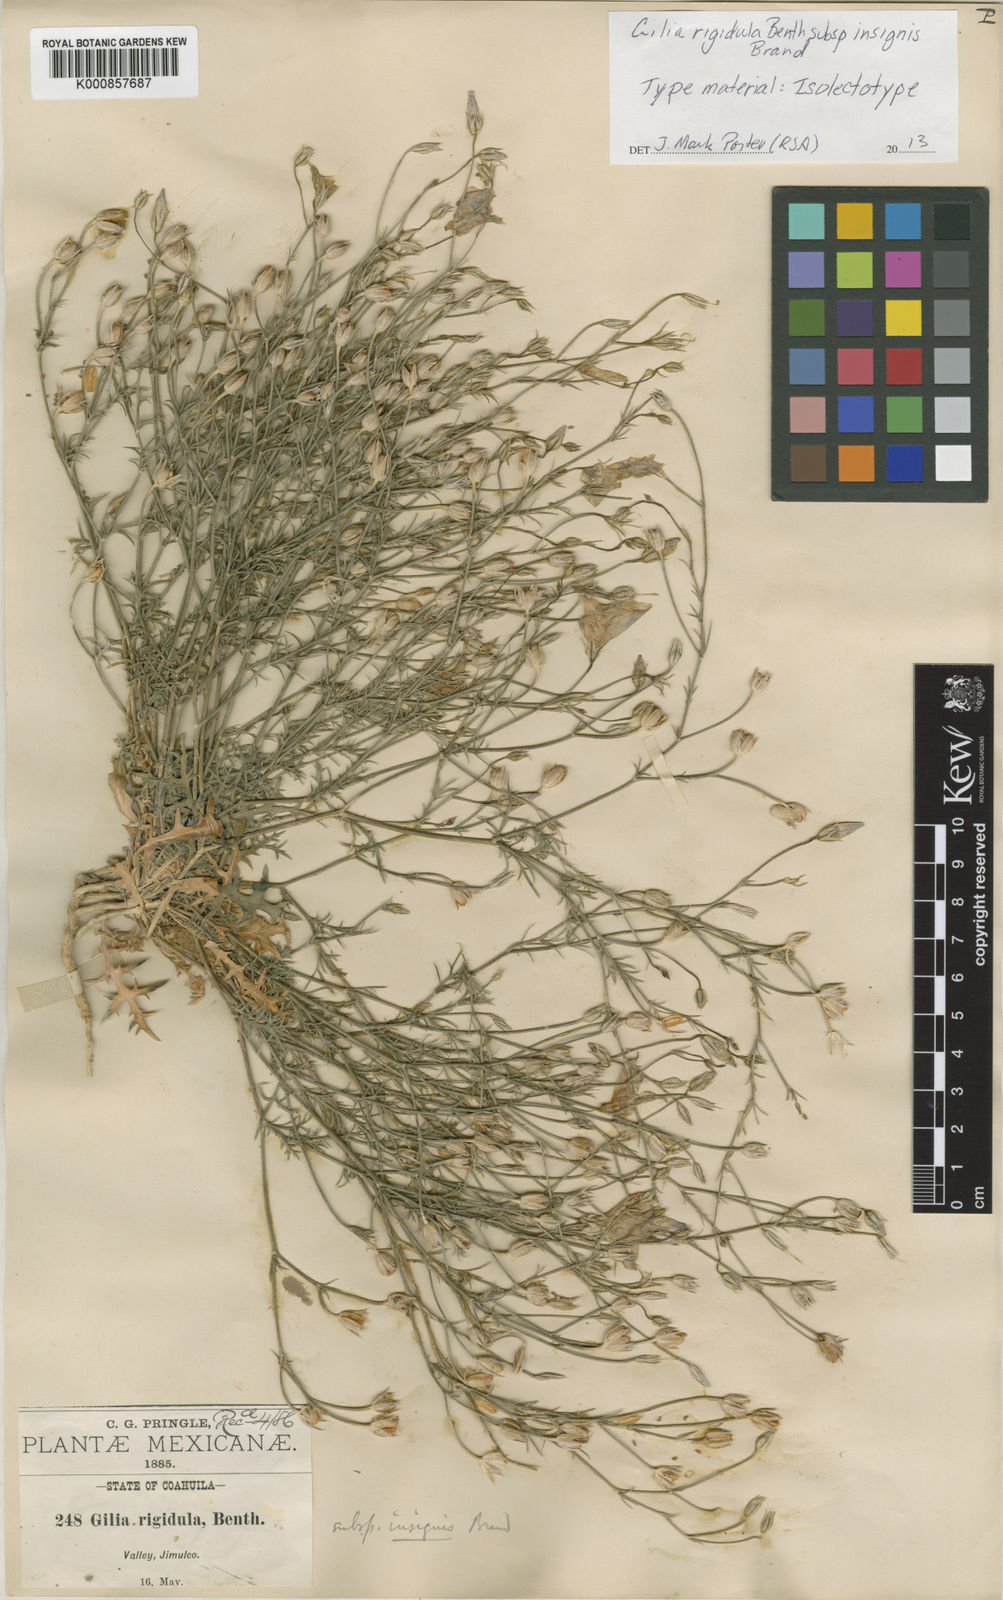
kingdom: Plantae
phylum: Tracheophyta
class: Magnoliopsida
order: Ericales
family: Polemoniaceae
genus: Giliastrum
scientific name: Giliastrum insigne
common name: Marked gilia
